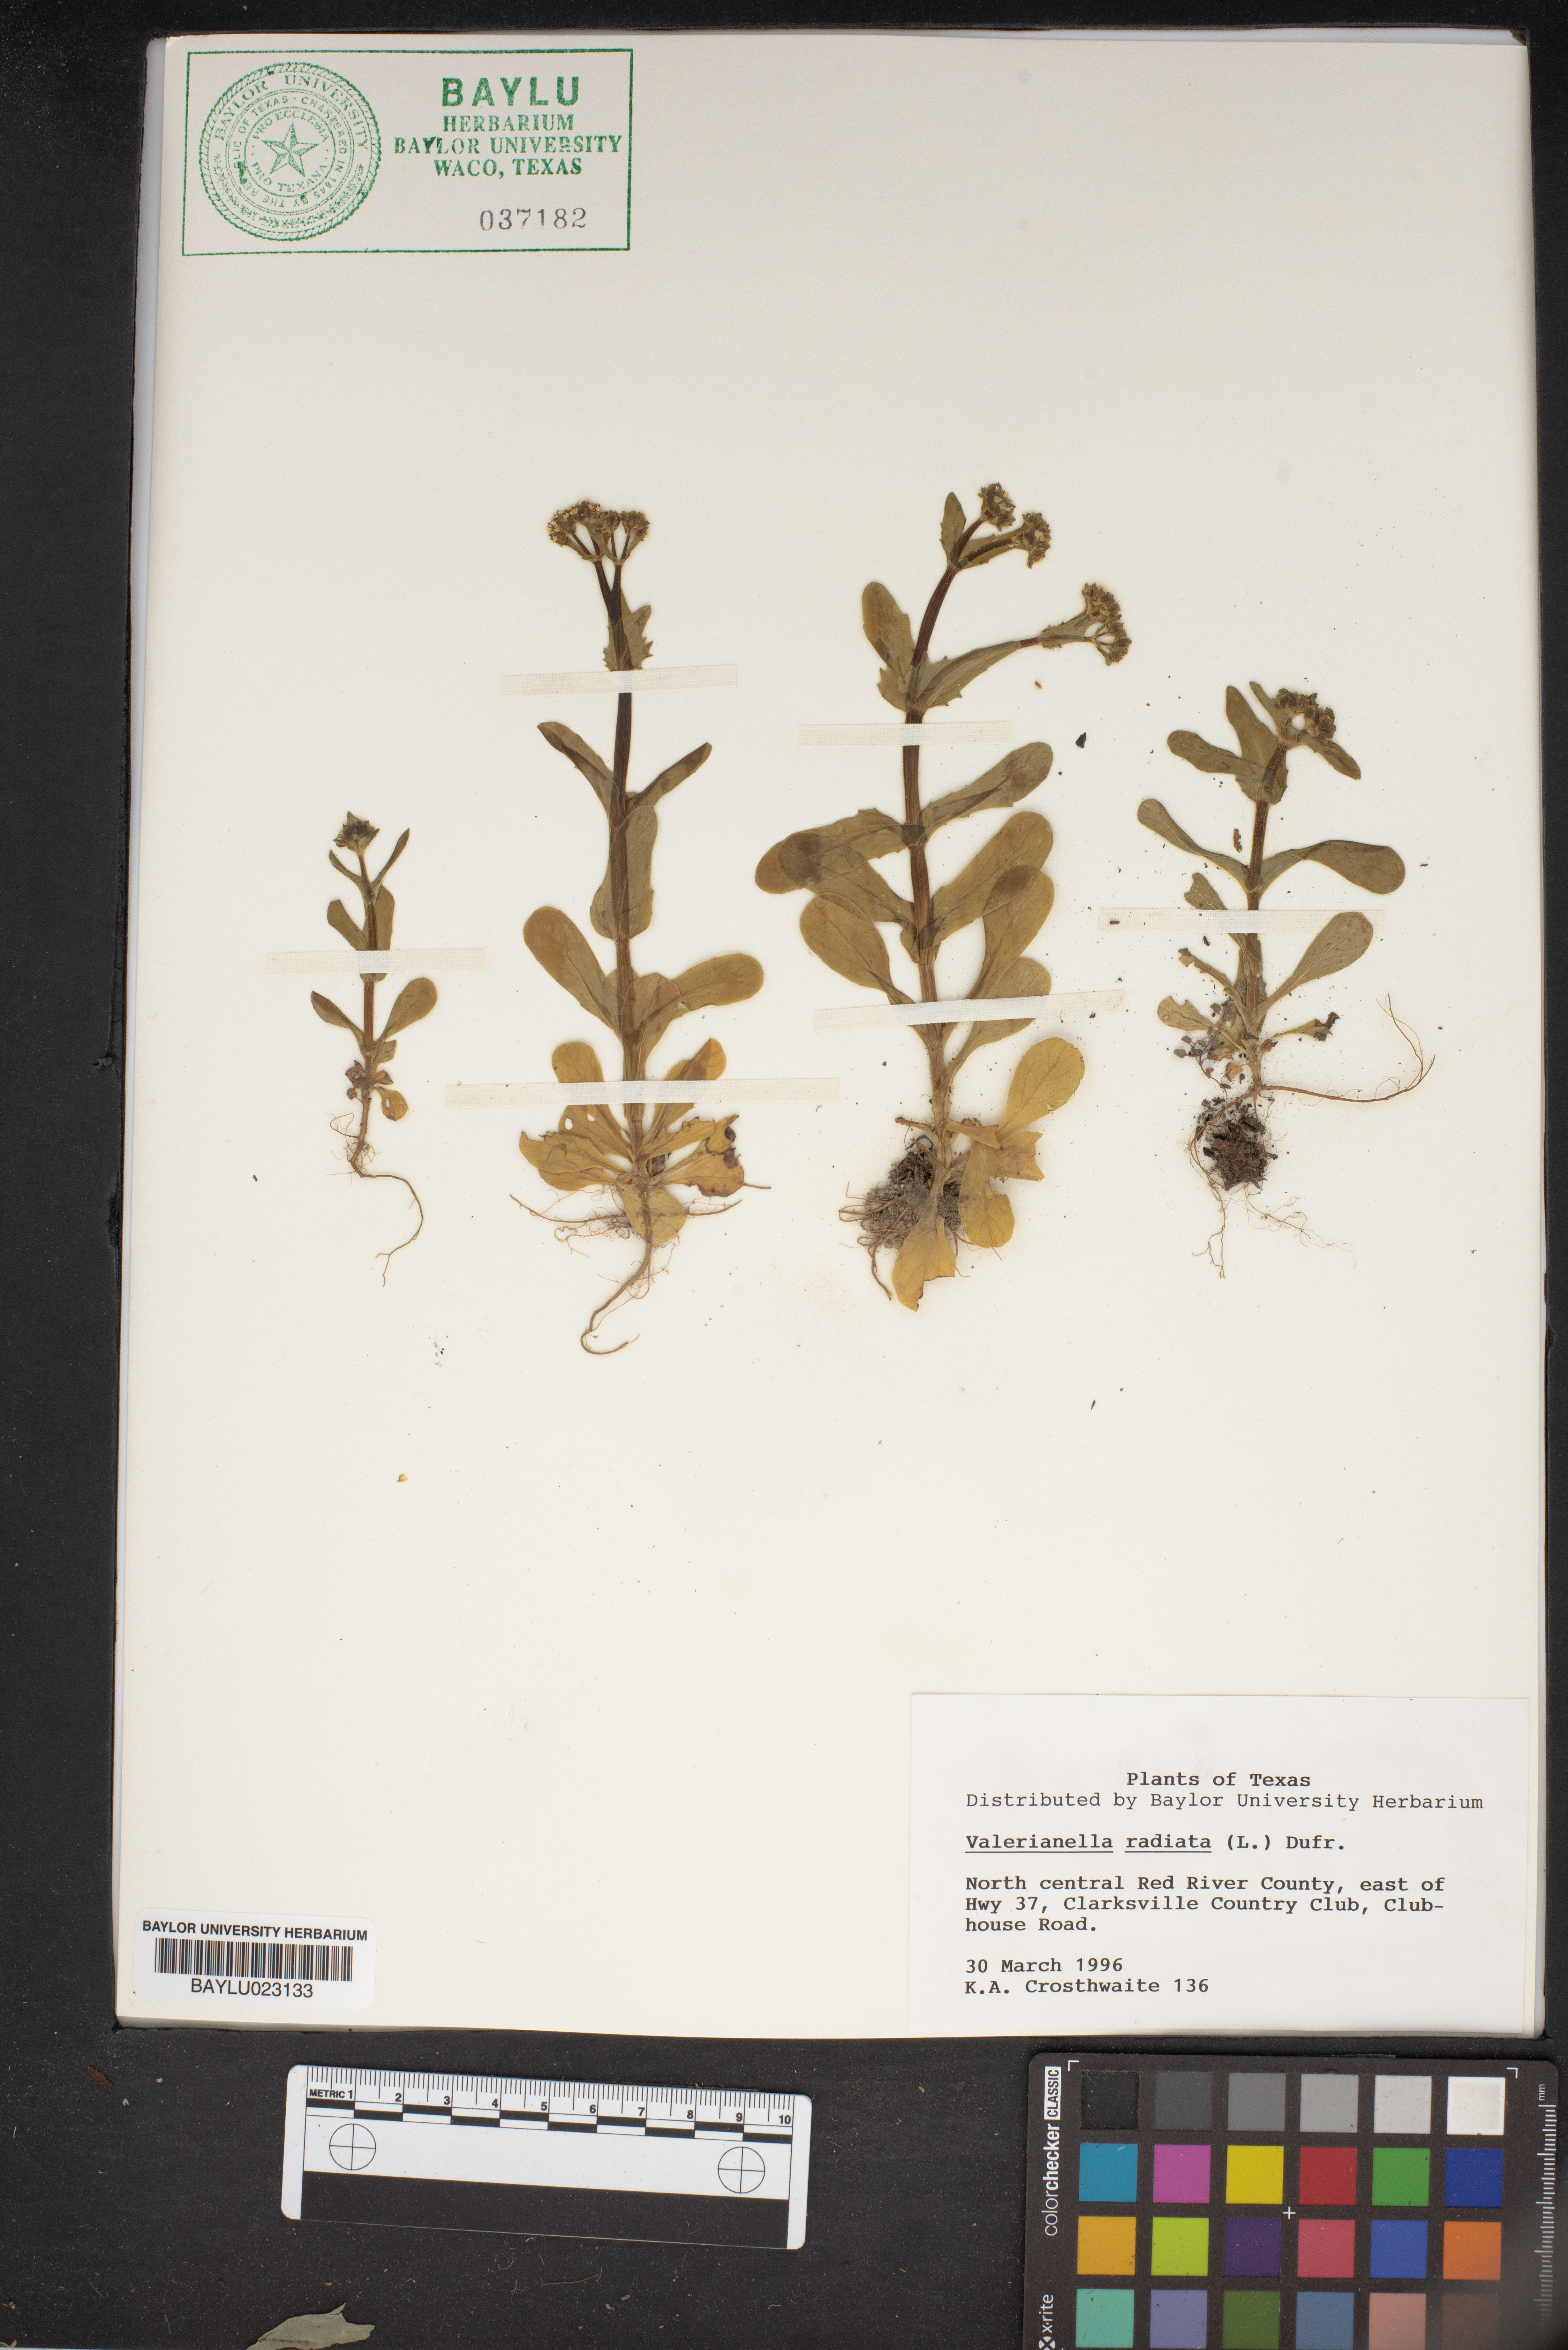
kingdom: Plantae
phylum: Tracheophyta
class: Magnoliopsida
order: Dipsacales
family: Caprifoliaceae
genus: Valerianella
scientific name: Valerianella radiata
